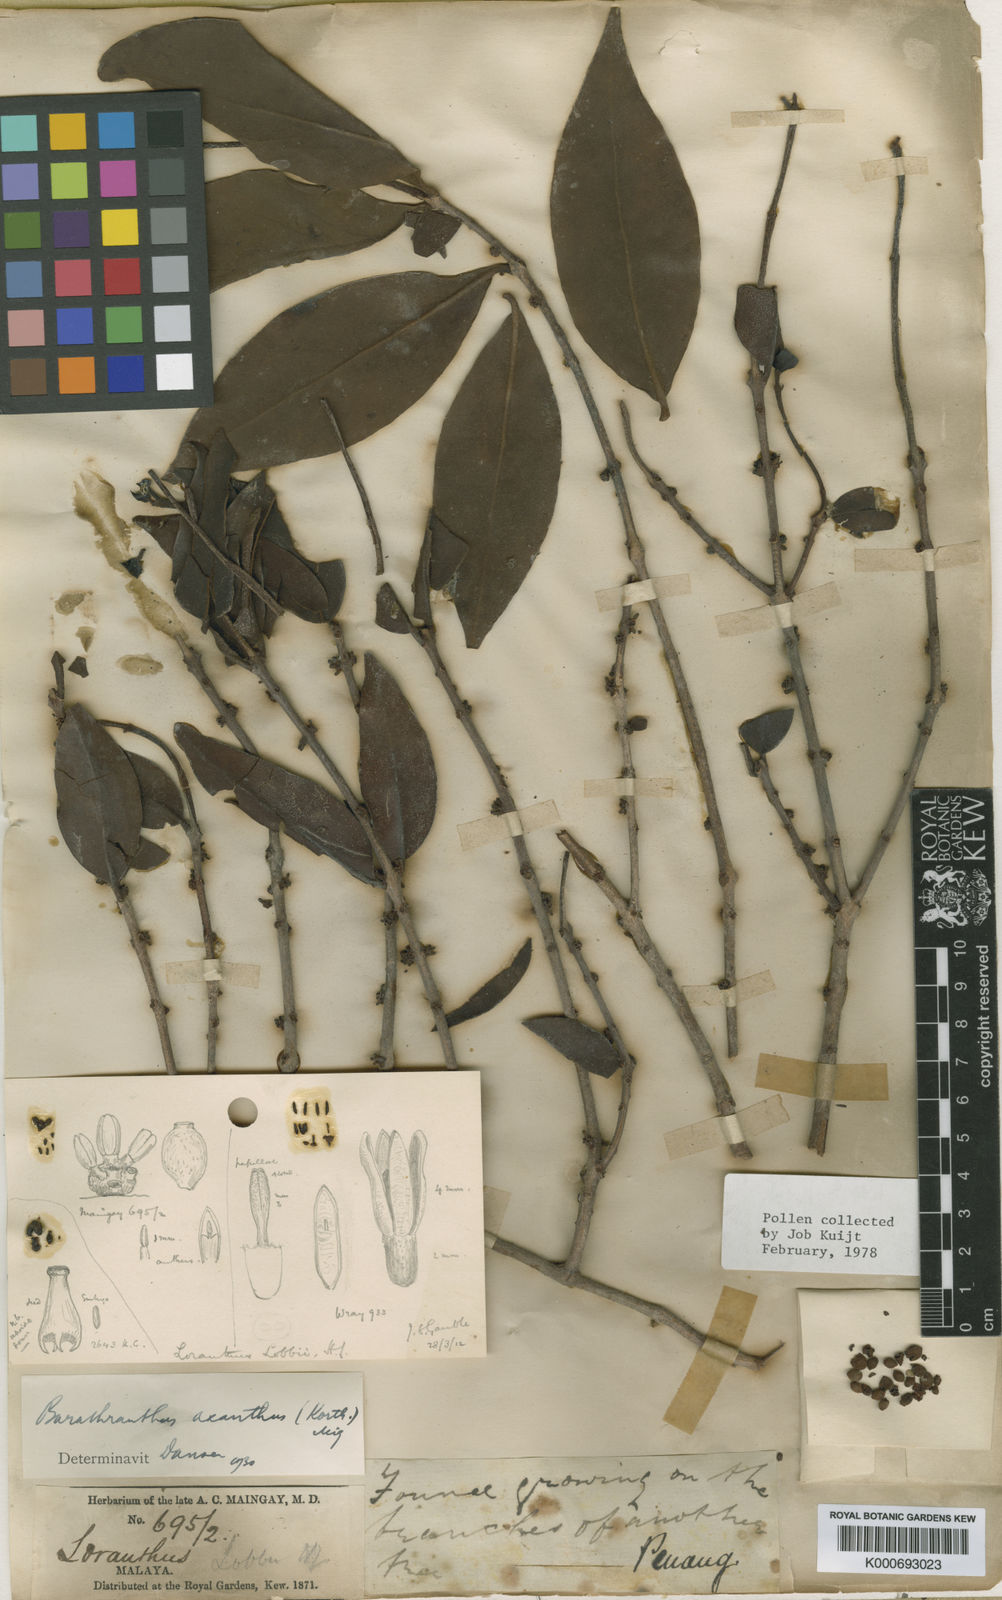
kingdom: Plantae
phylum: Tracheophyta
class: Magnoliopsida
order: Santalales
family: Loranthaceae
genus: Barathranthus
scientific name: Barathranthus axanthus
